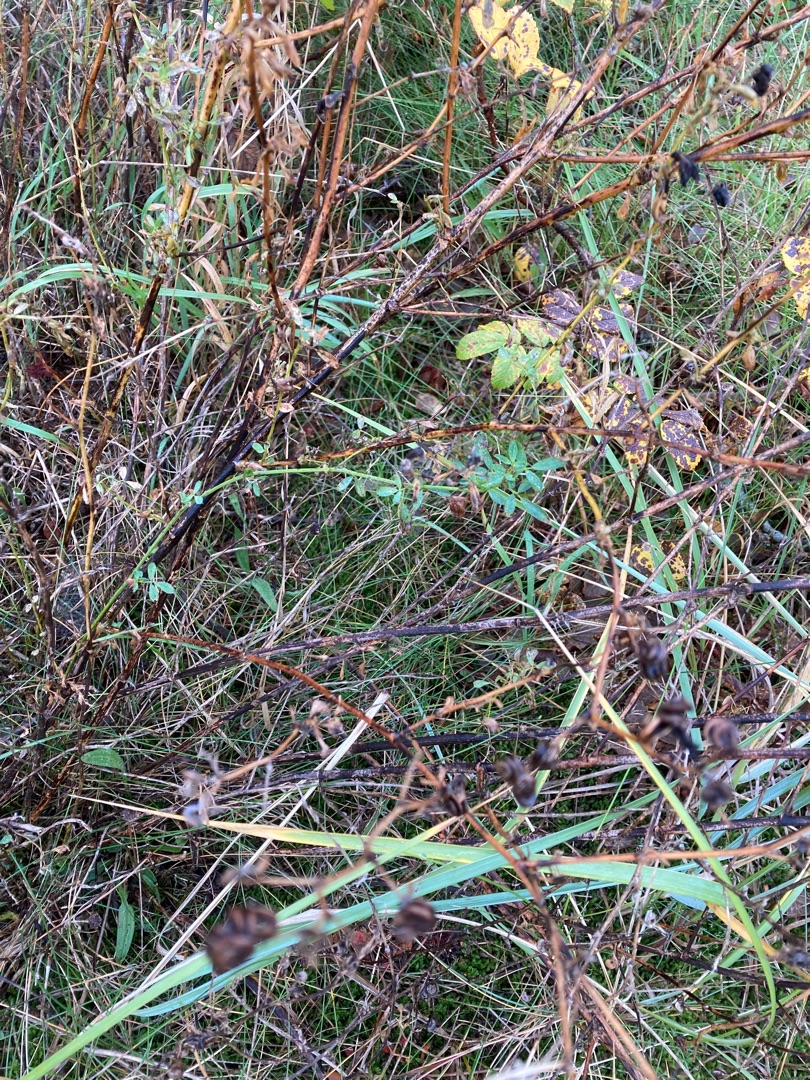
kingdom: Plantae
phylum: Tracheophyta
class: Magnoliopsida
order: Fabales
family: Fabaceae
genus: Medicago
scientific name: Medicago sativa
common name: Lucerne
